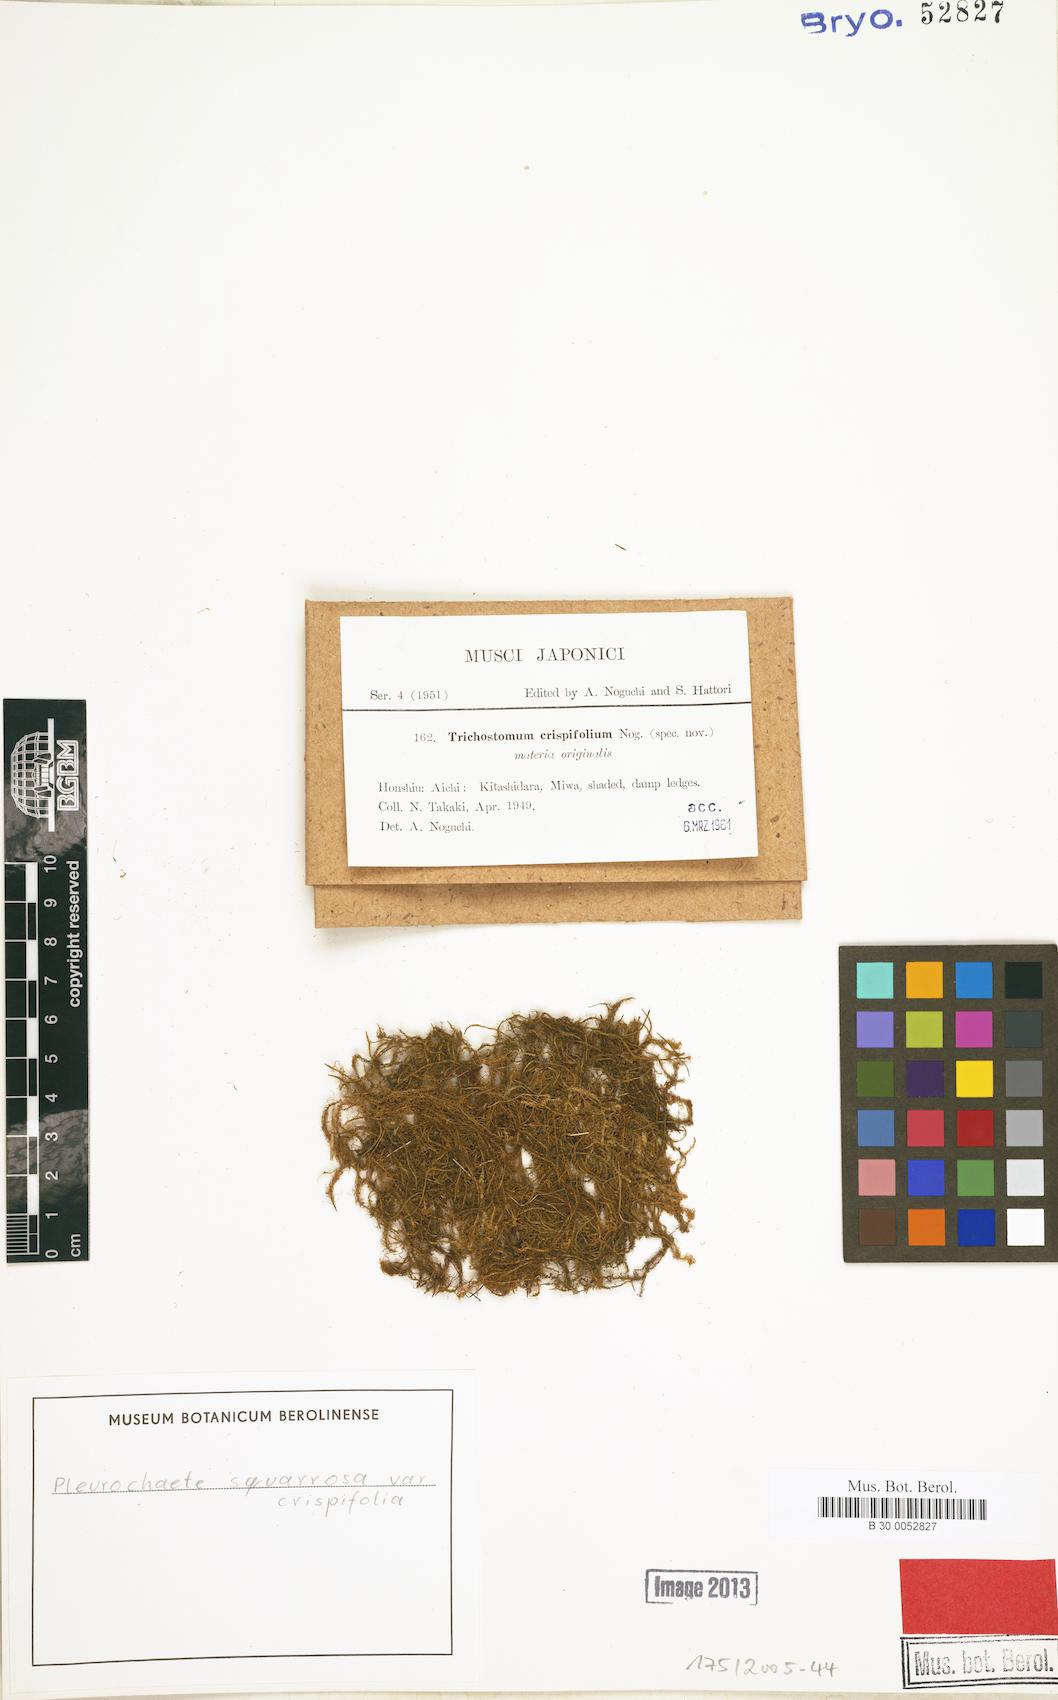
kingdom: Plantae
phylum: Bryophyta
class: Bryopsida
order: Pottiales
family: Pottiaceae
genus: Chionoloma
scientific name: Chionoloma angustatum
